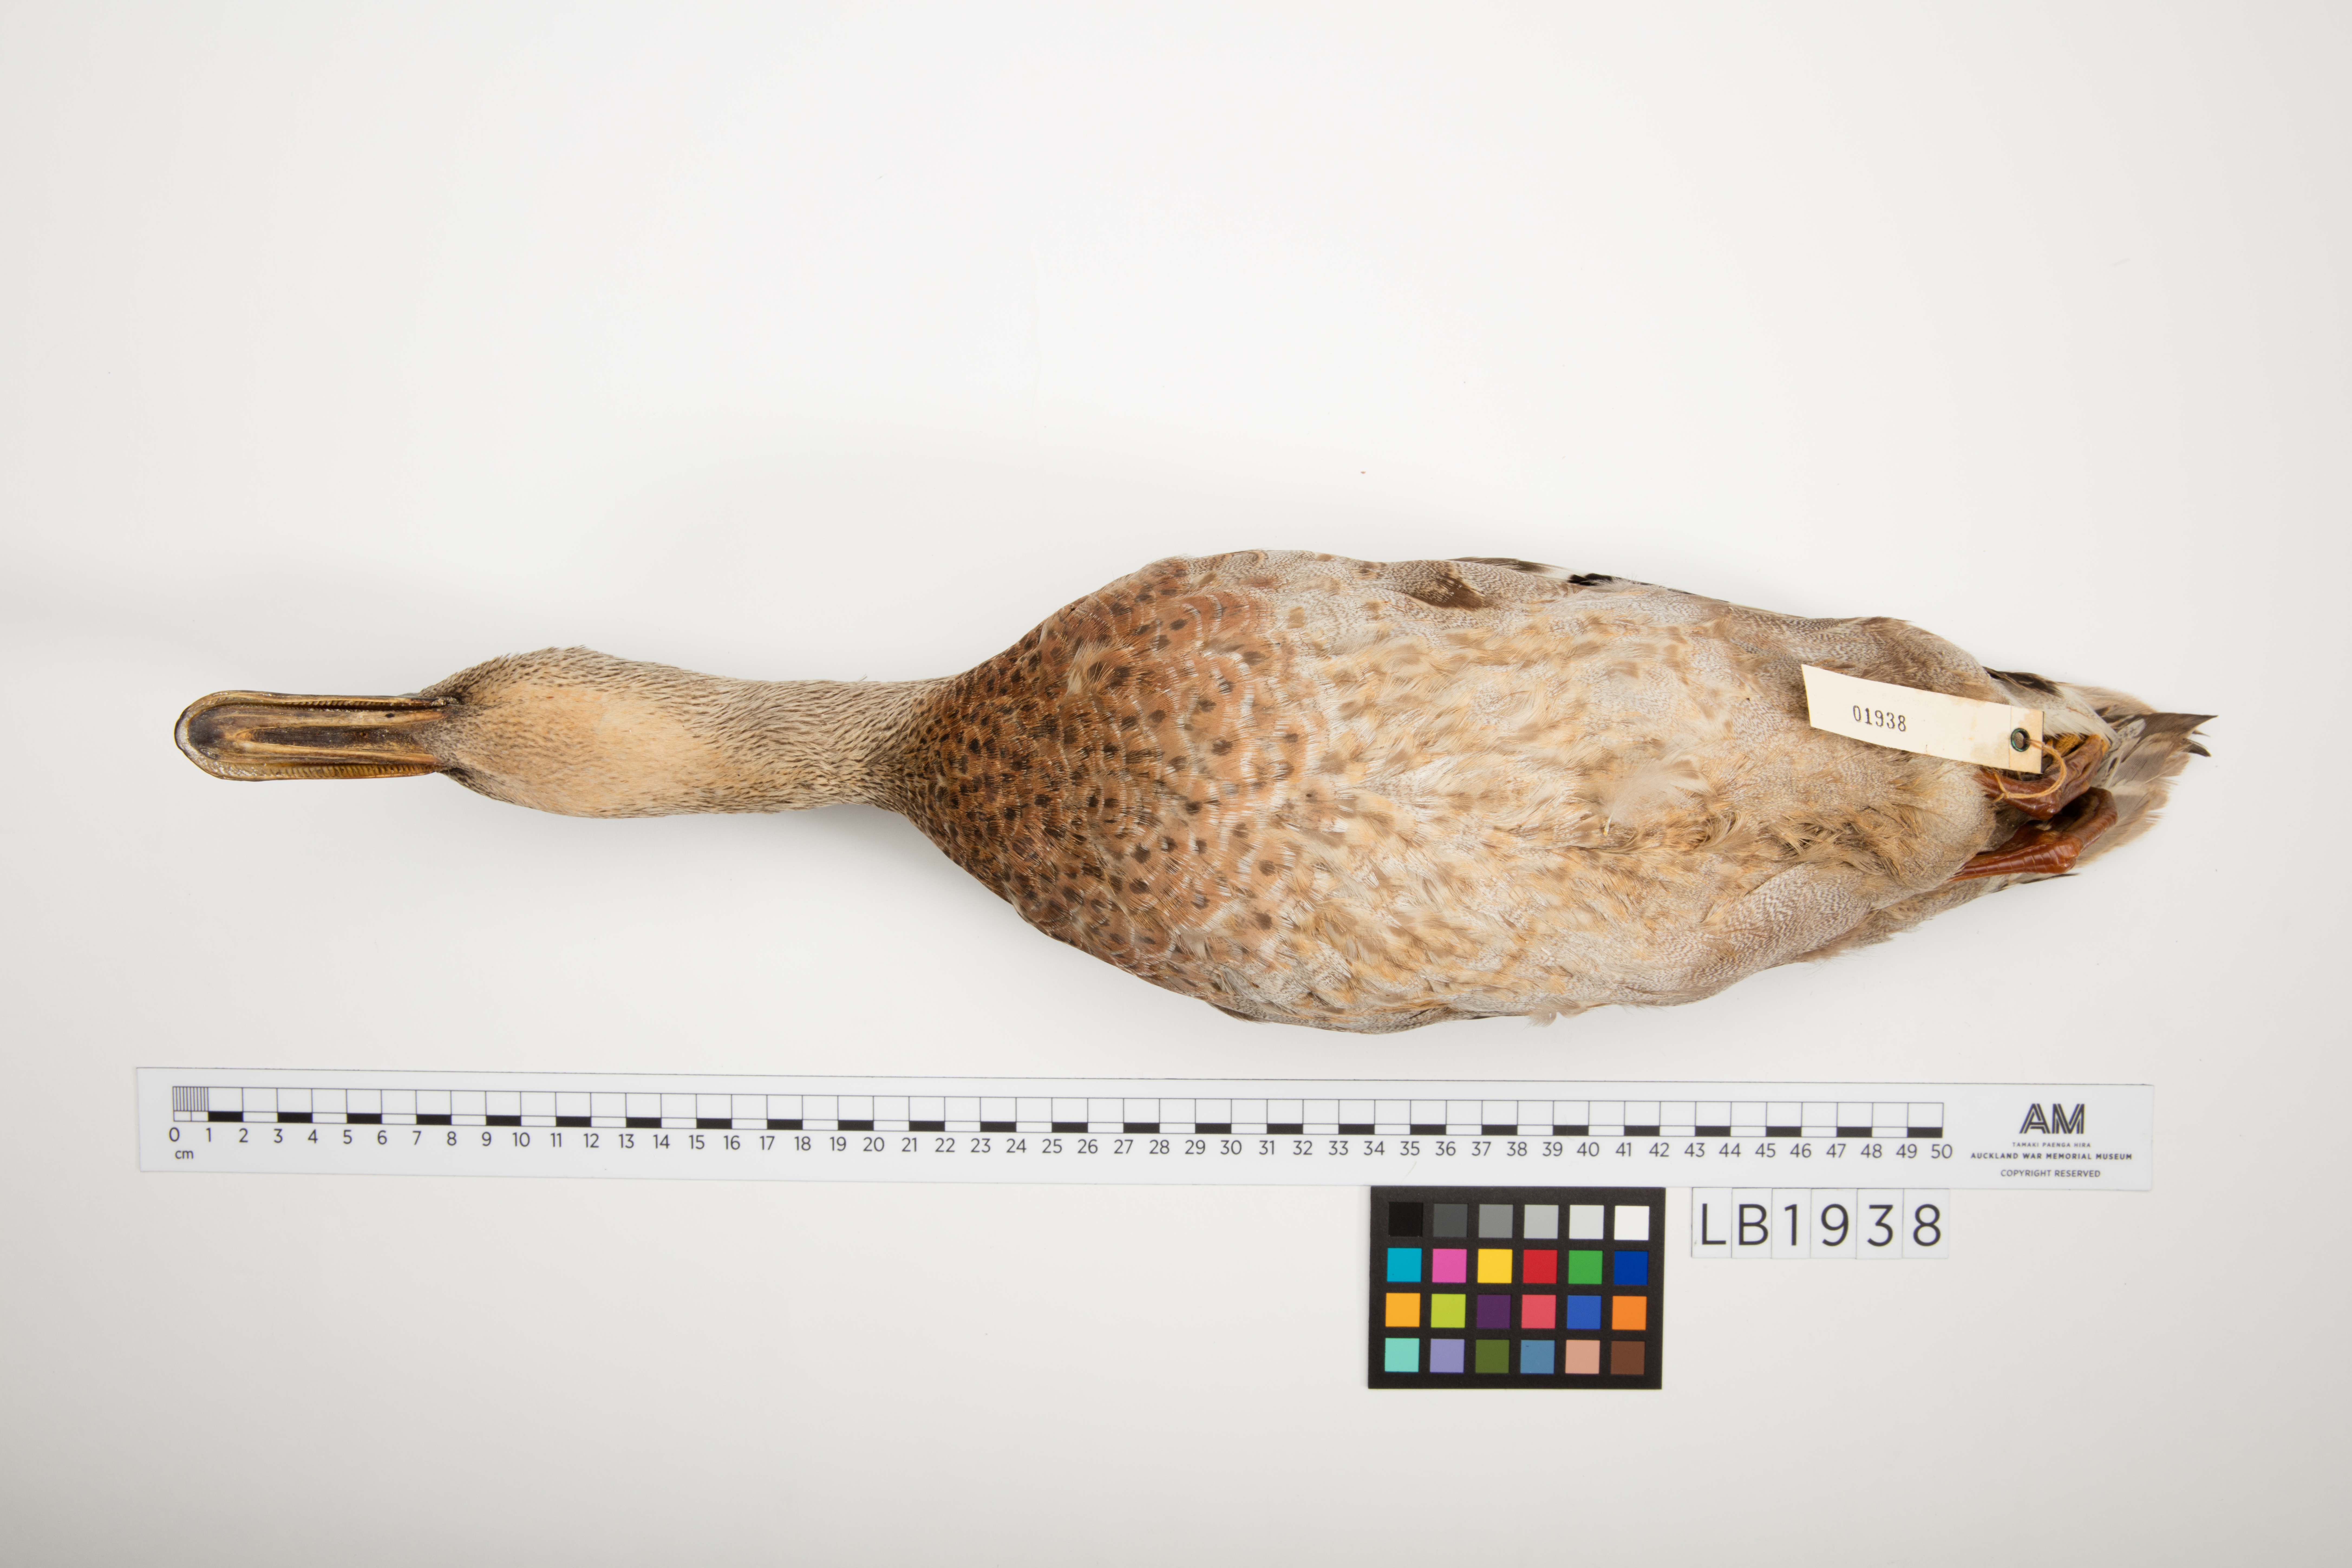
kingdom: Animalia
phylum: Chordata
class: Aves
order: Anseriformes
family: Anatidae
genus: Anas
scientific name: Anas platyrhynchos
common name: Mallard
